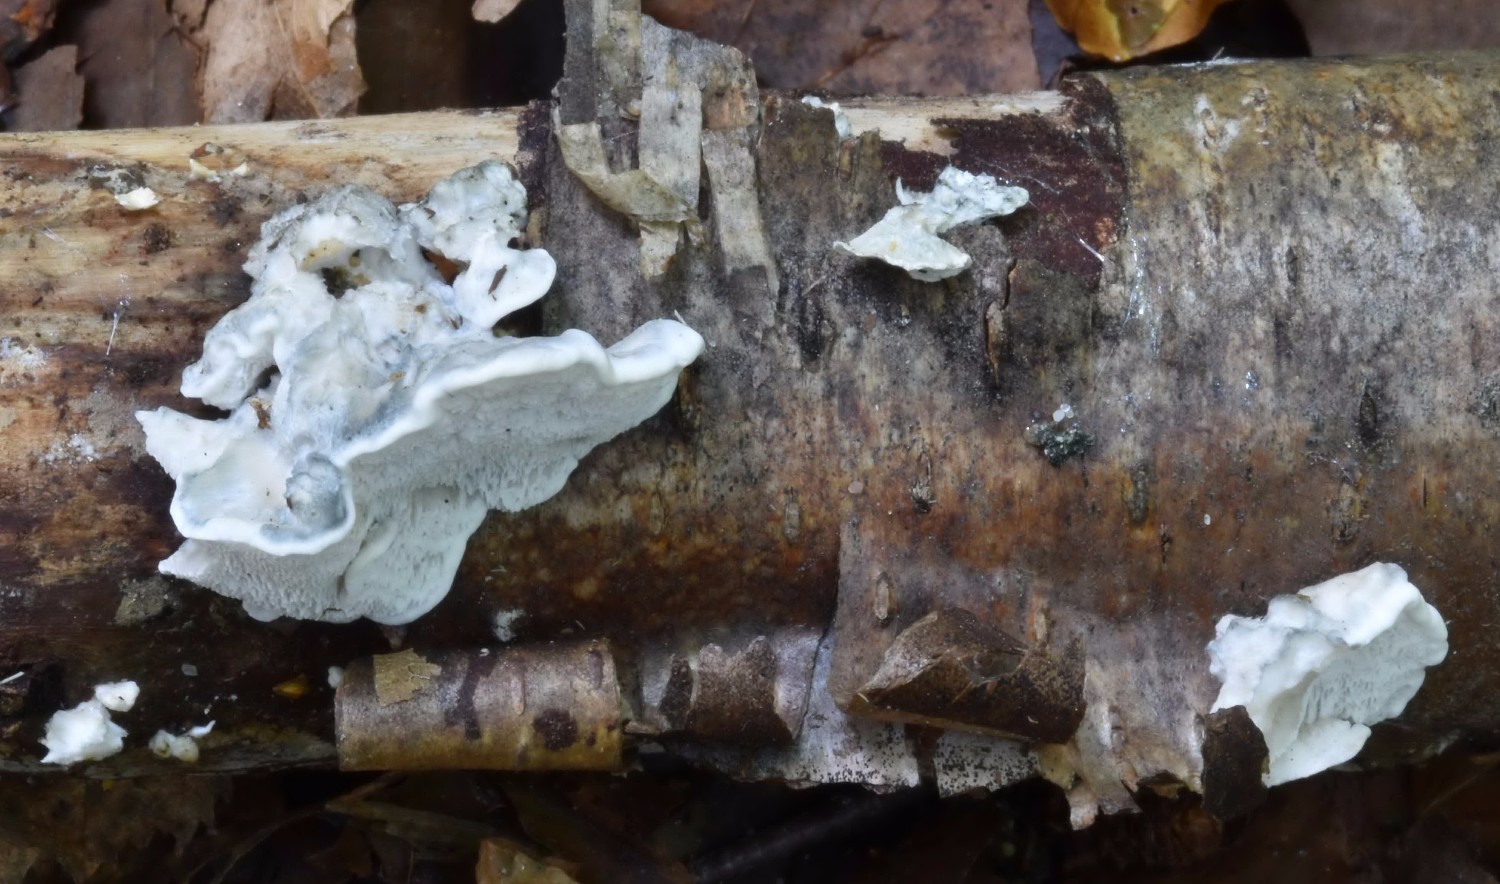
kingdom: Fungi
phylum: Basidiomycota
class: Agaricomycetes
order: Polyporales
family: Polyporaceae
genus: Cyanosporus
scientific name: Cyanosporus alni
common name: blegblå kødporesvamp
